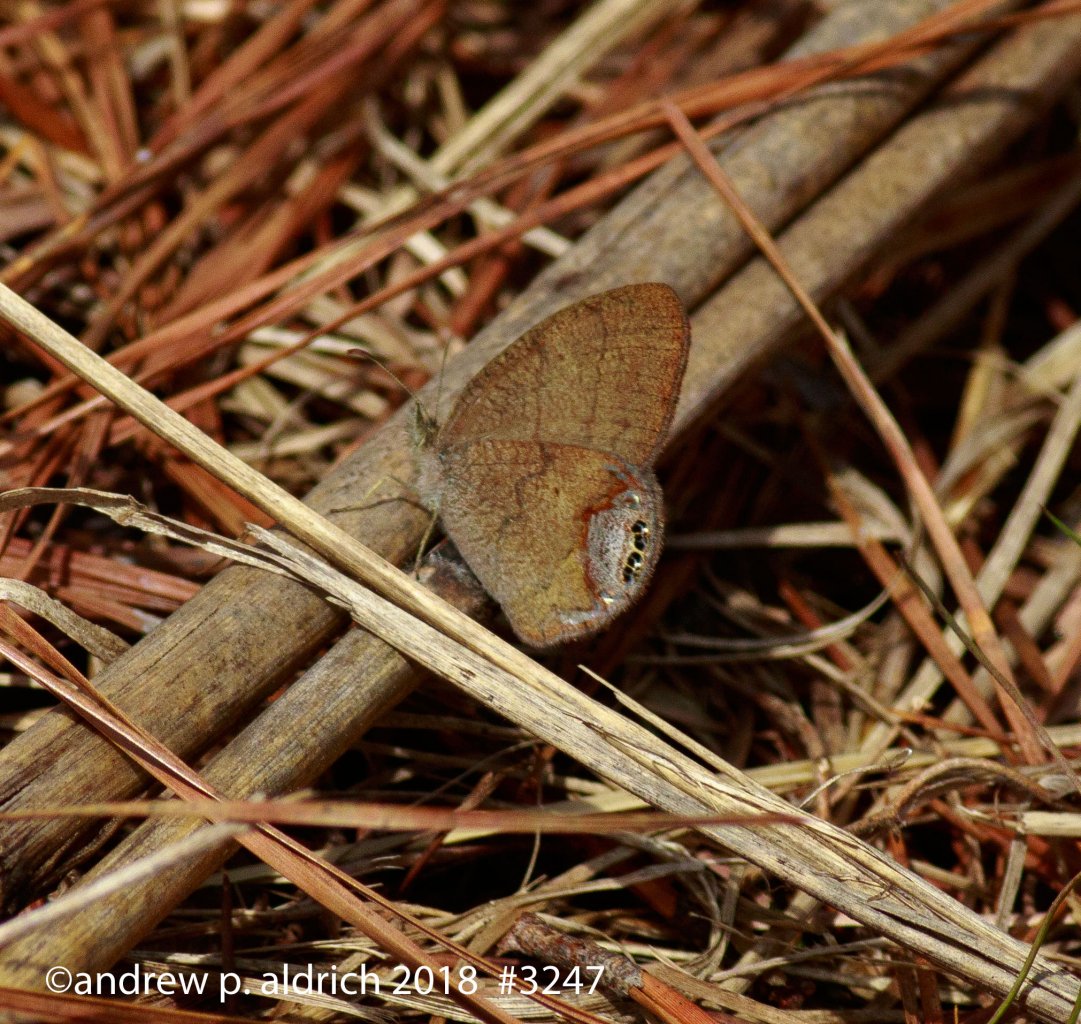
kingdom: Animalia
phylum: Arthropoda
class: Insecta
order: Lepidoptera
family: Nymphalidae
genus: Euptychia
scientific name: Euptychia cornelius
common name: Gemmed Satyr
